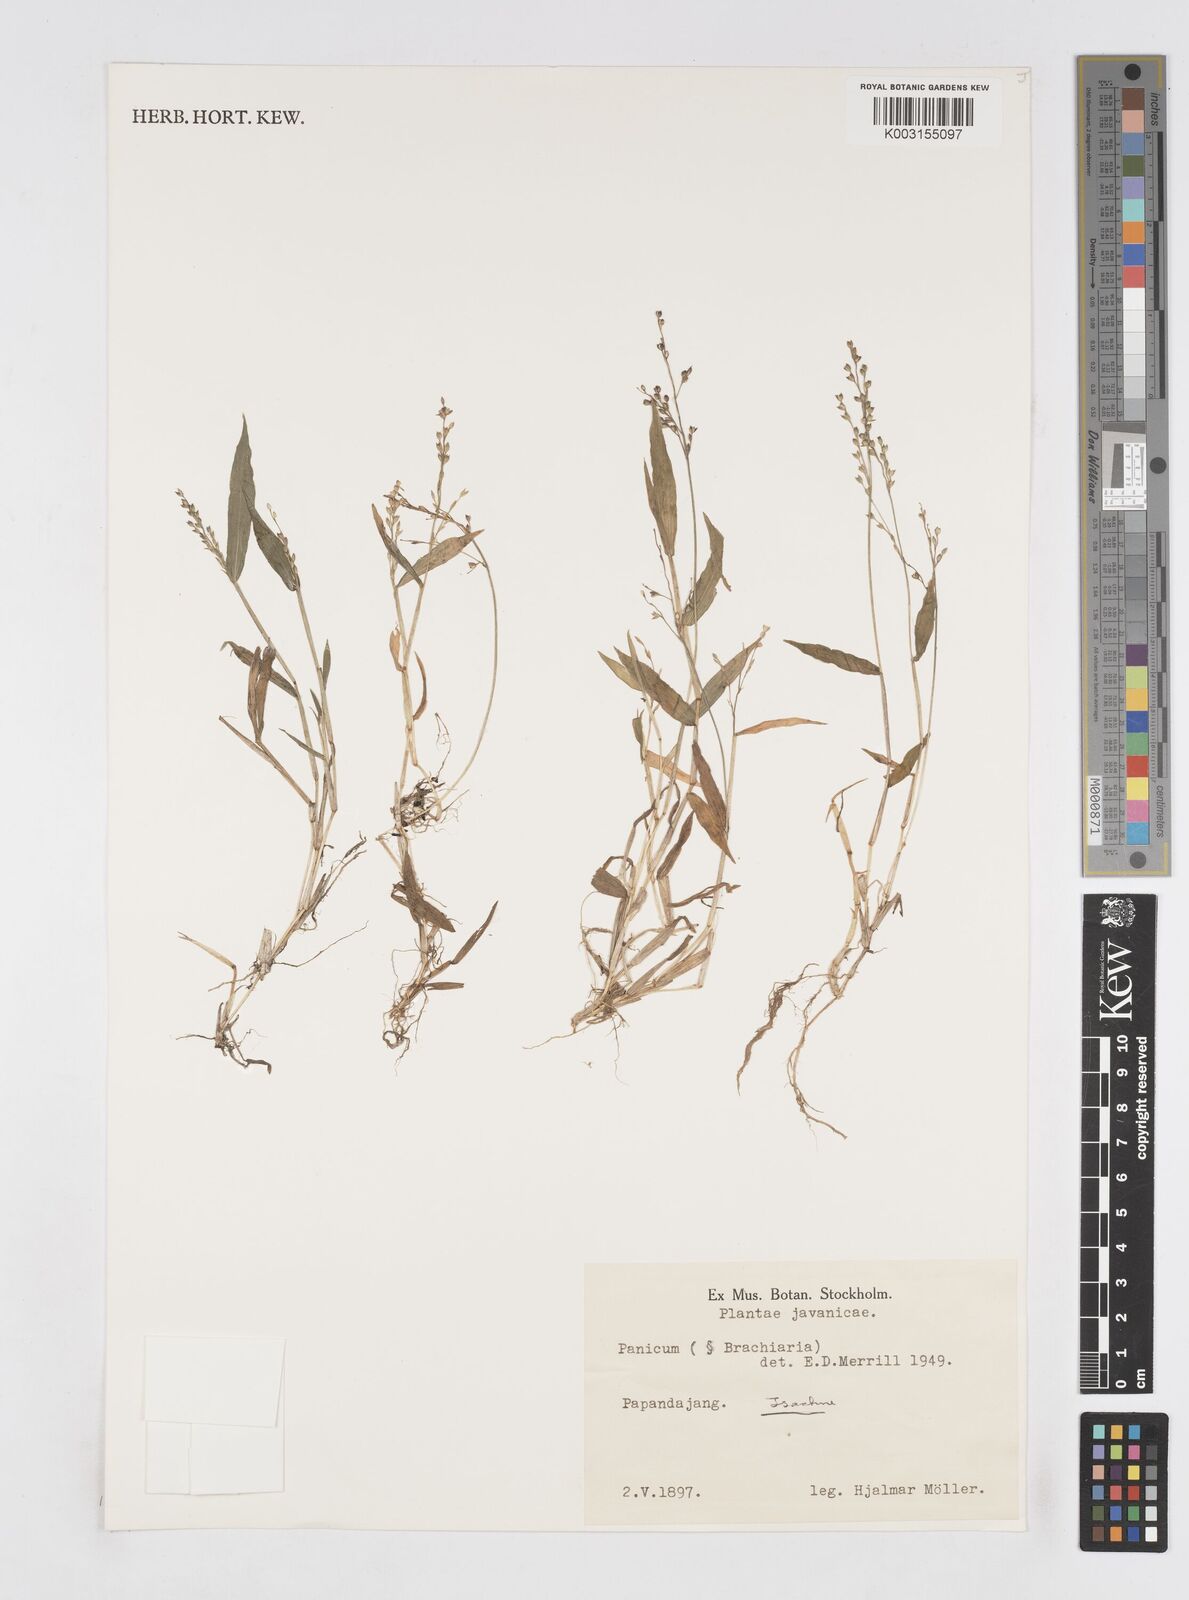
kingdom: Plantae
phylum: Tracheophyta
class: Liliopsida
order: Poales
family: Poaceae
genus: Isachne
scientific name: Isachne
